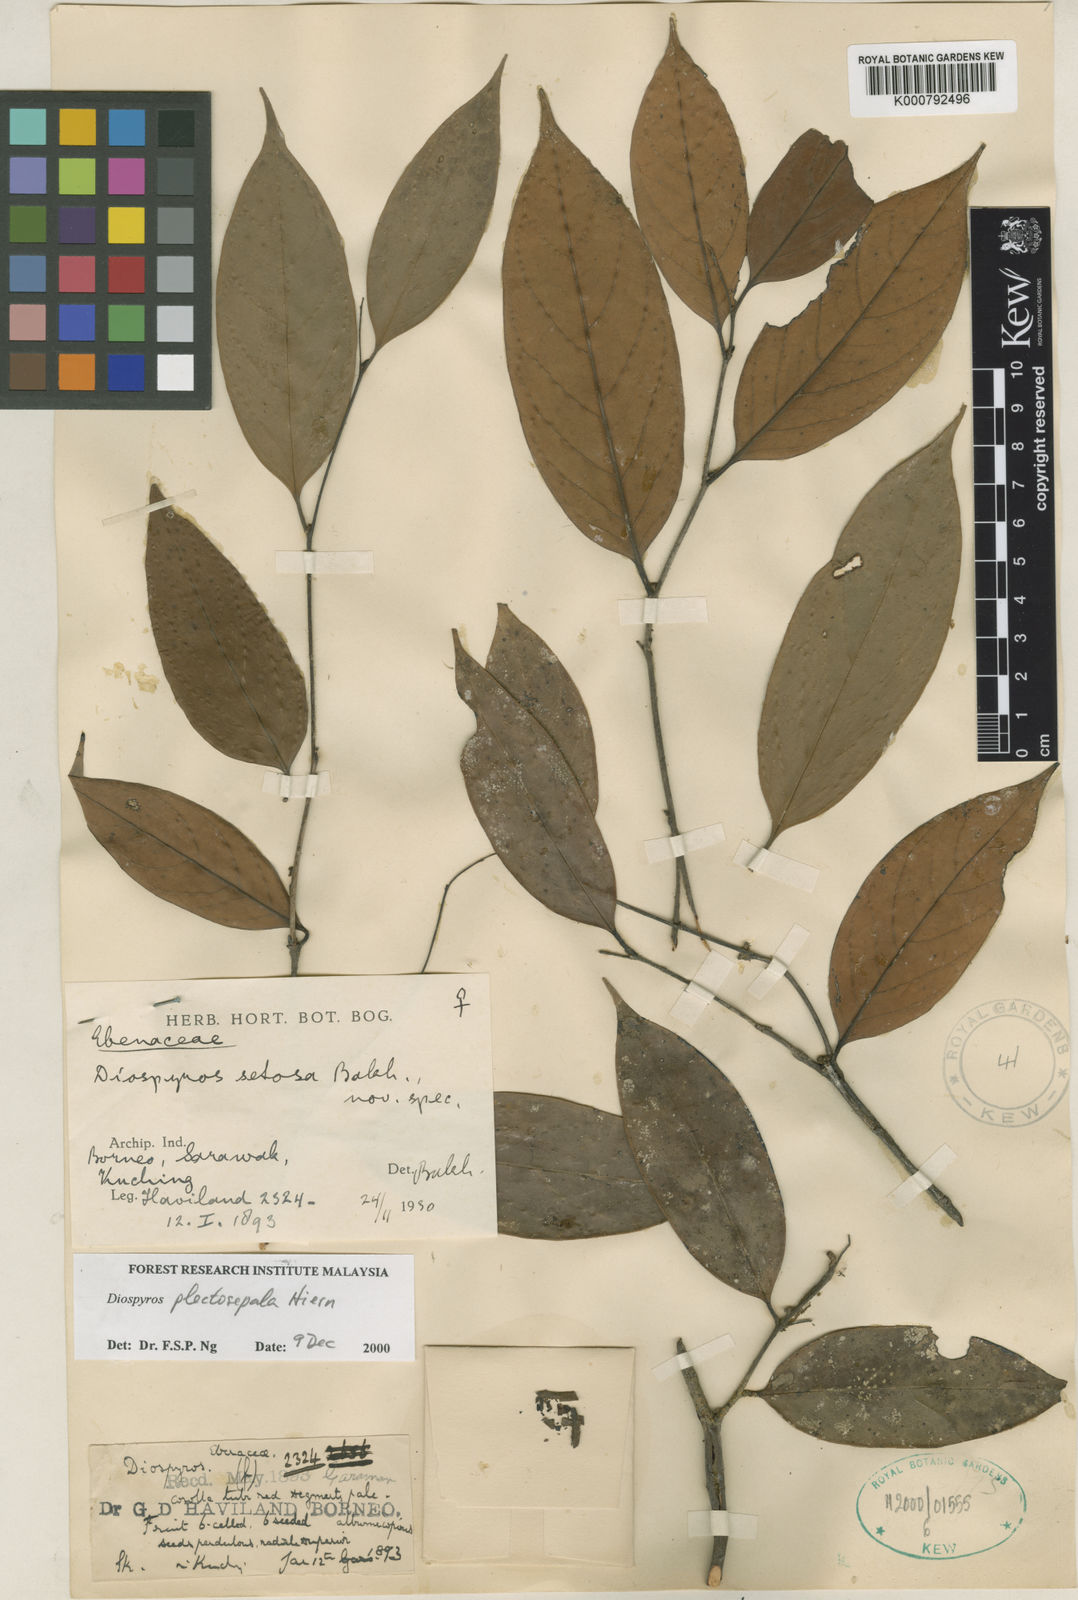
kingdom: Plantae
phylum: Tracheophyta
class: Magnoliopsida
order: Ericales
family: Ebenaceae
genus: Diospyros
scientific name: Diospyros plectosepala
